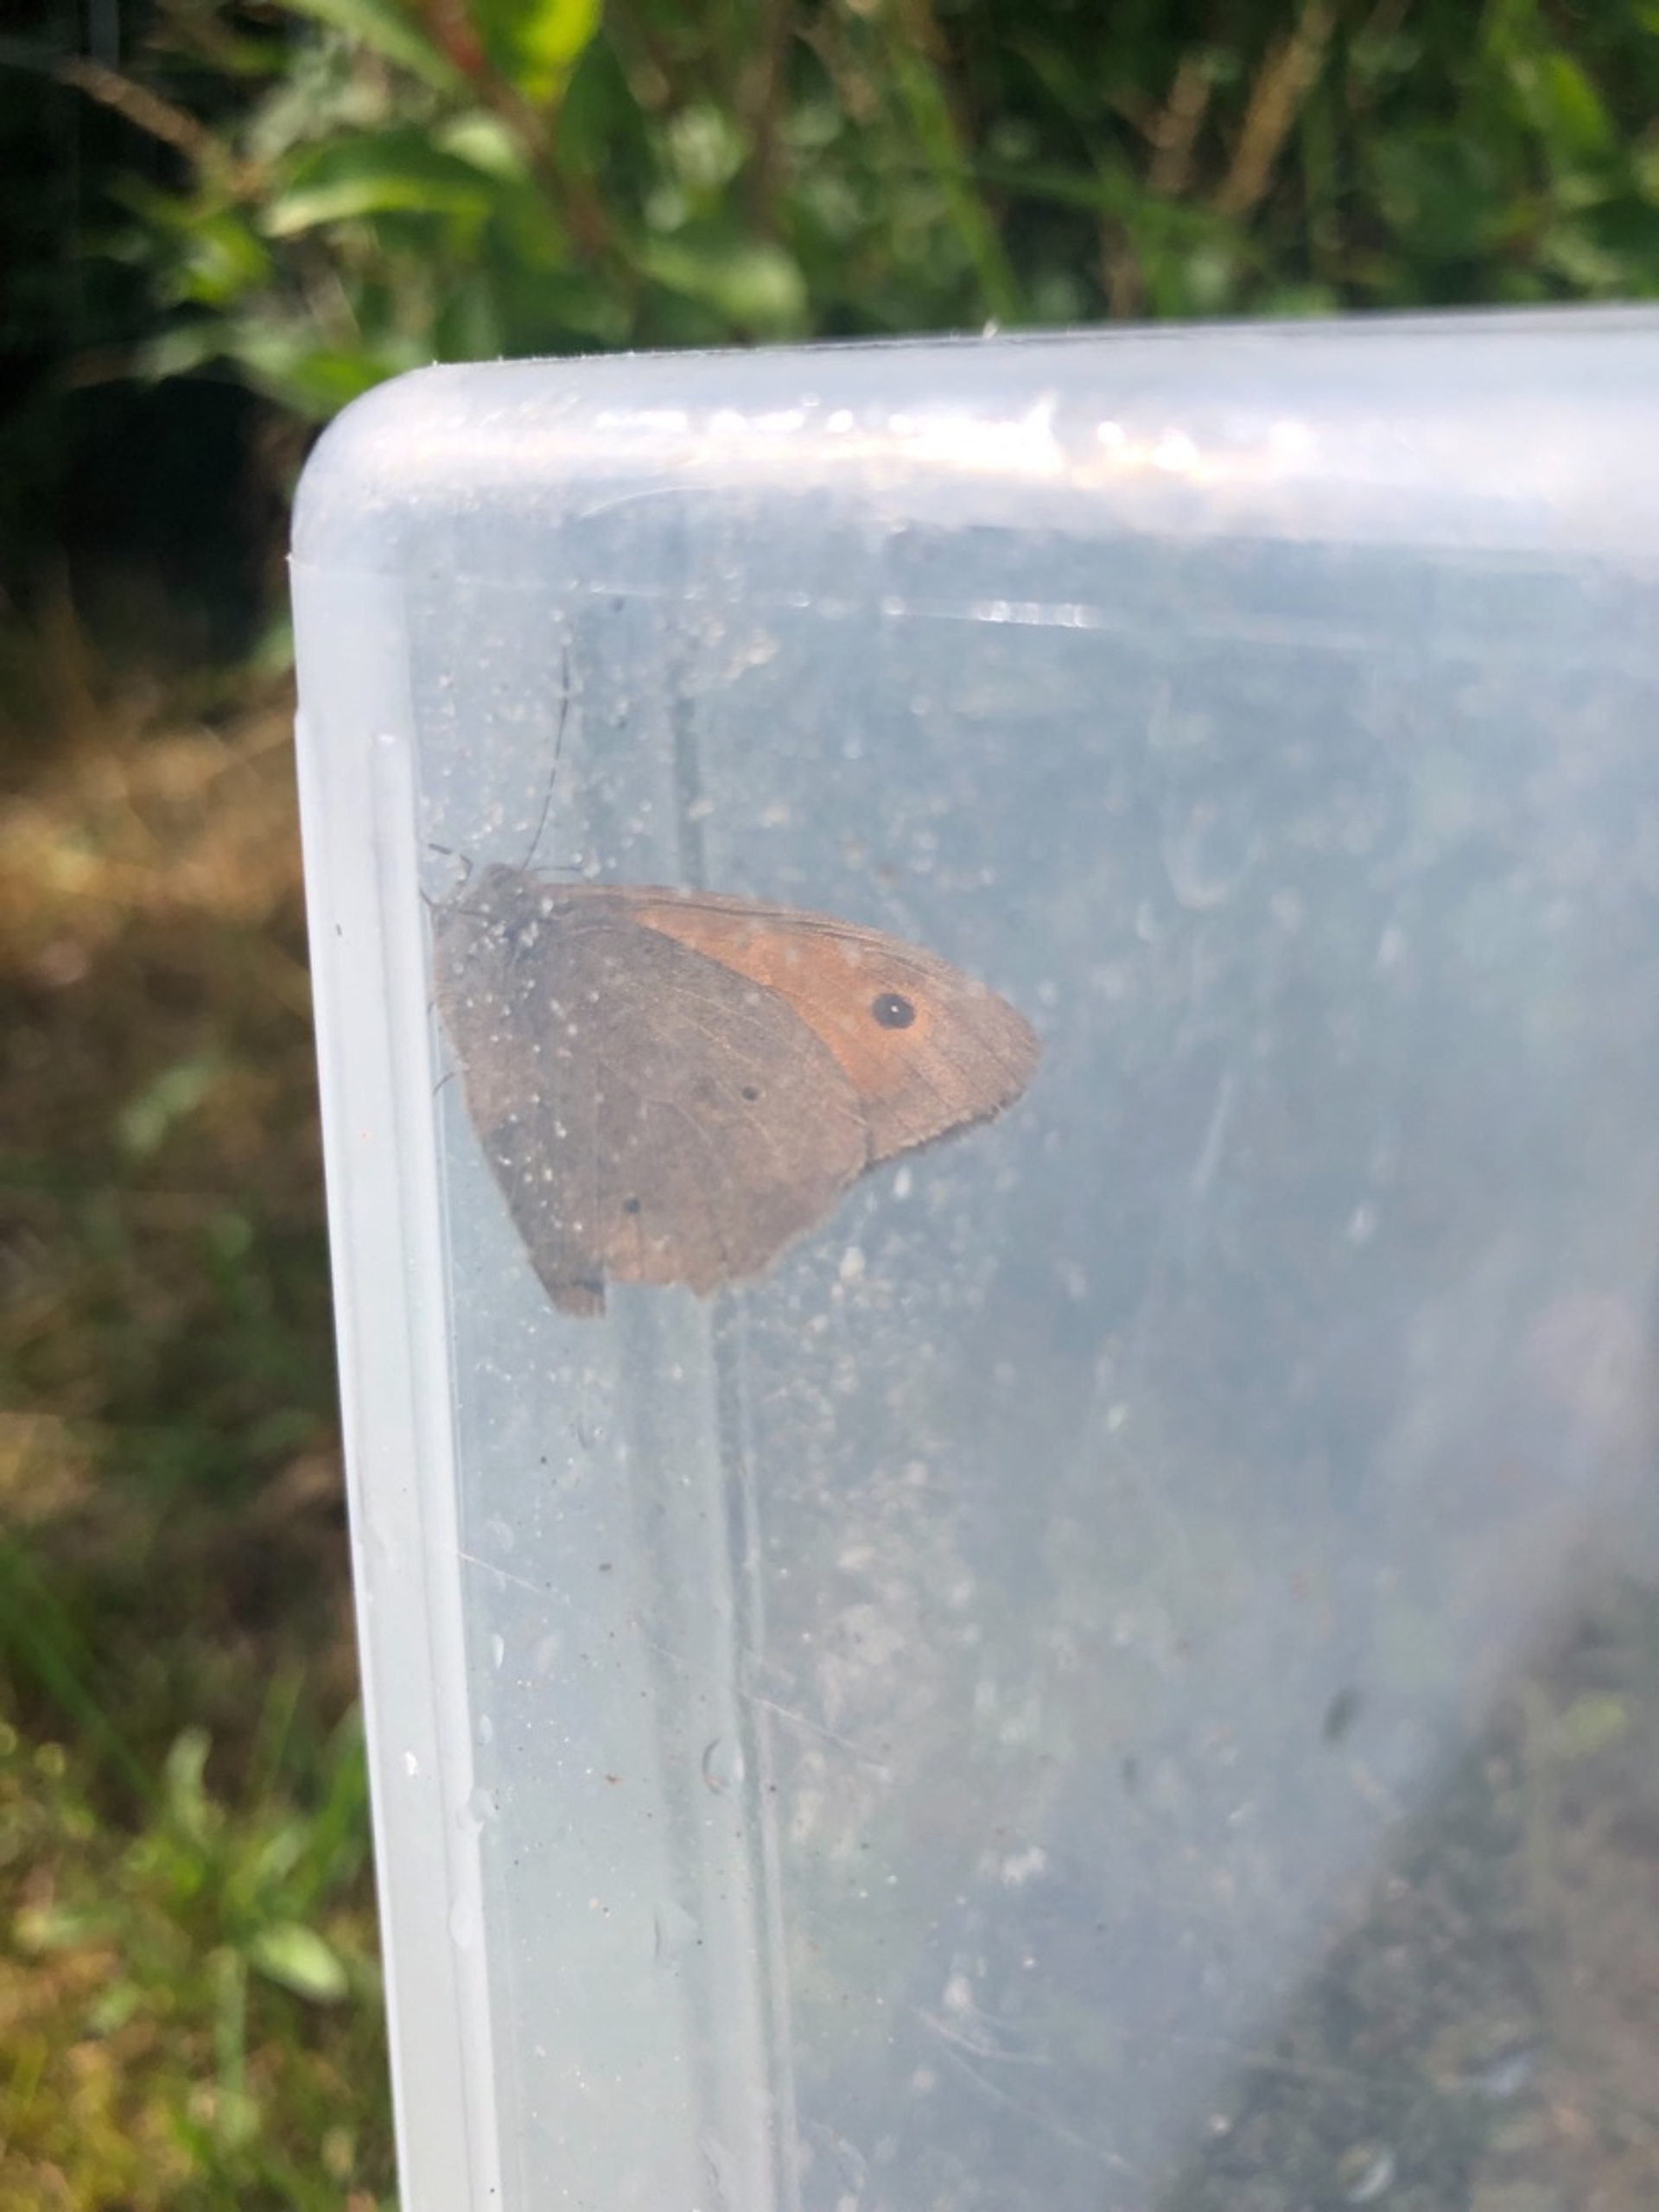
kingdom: Animalia
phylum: Arthropoda
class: Insecta
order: Lepidoptera
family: Nymphalidae
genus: Maniola
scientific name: Maniola jurtina
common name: Græsrandøje
